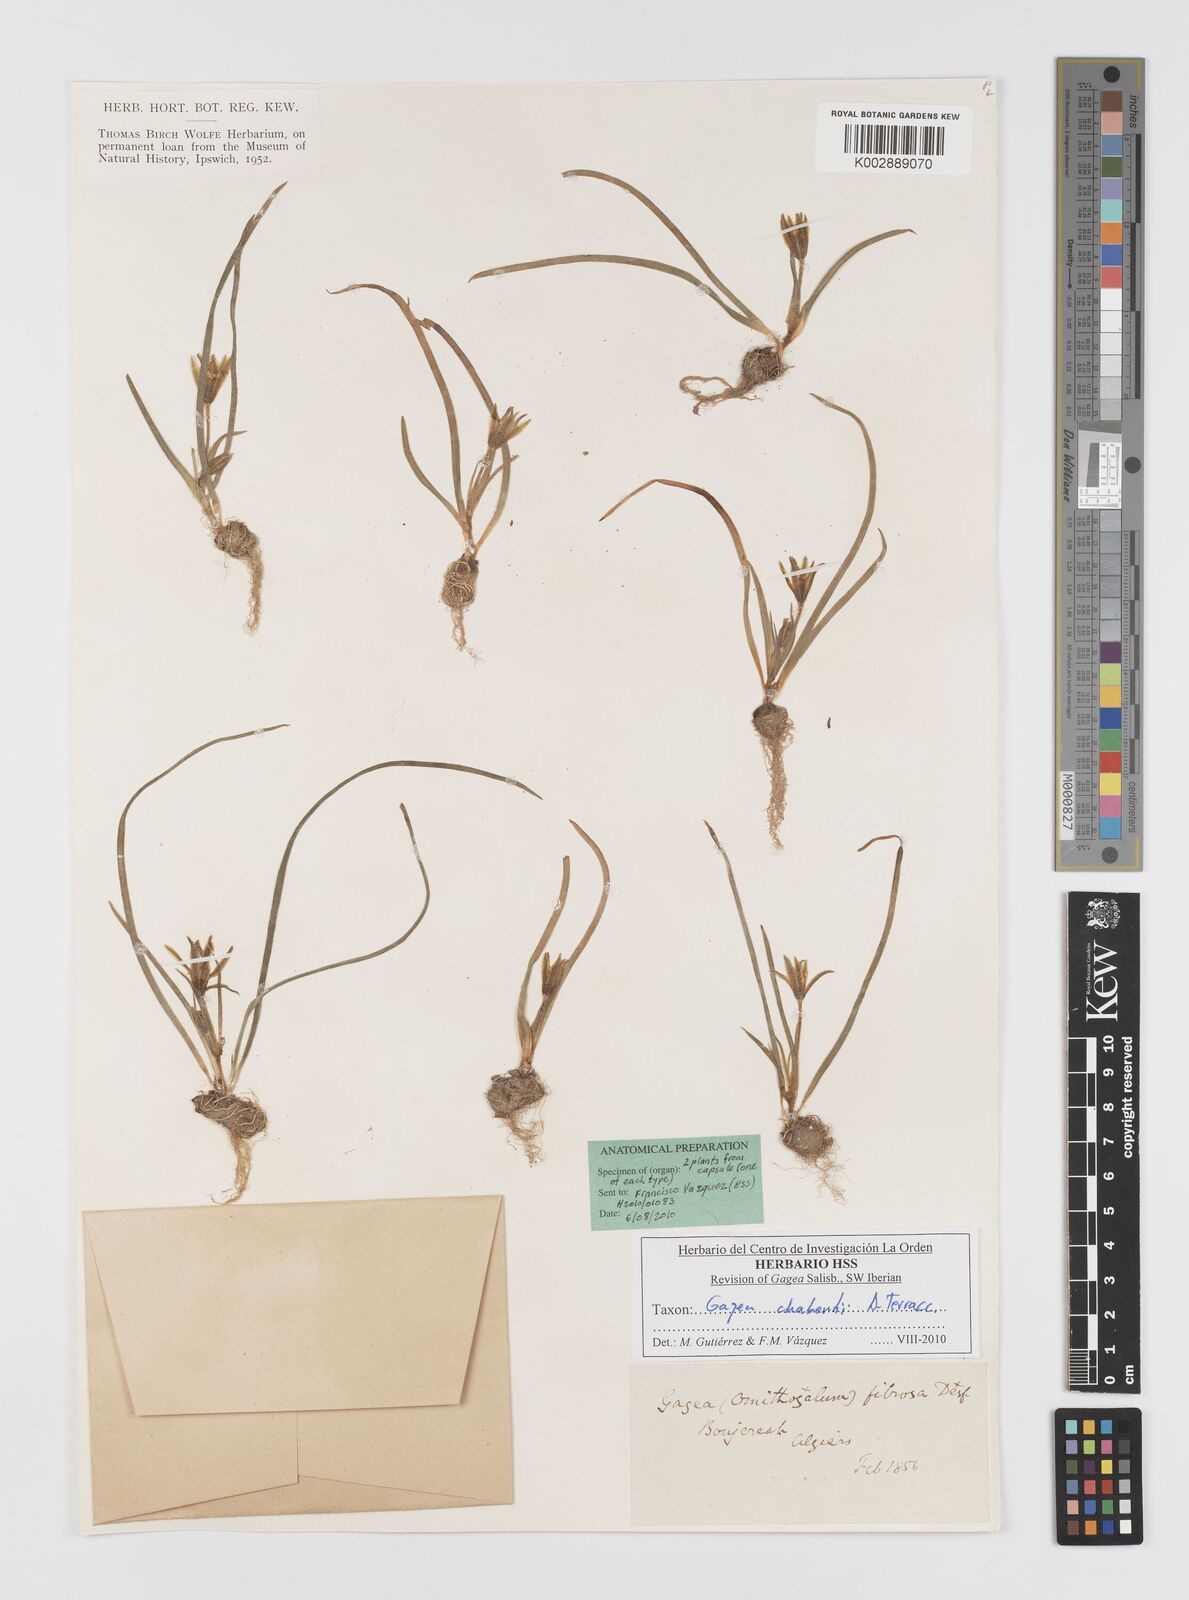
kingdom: Plantae
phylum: Tracheophyta
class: Liliopsida
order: Liliales
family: Liliaceae
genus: Gagea
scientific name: Gagea chabertii
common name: Chabert’s gagea
